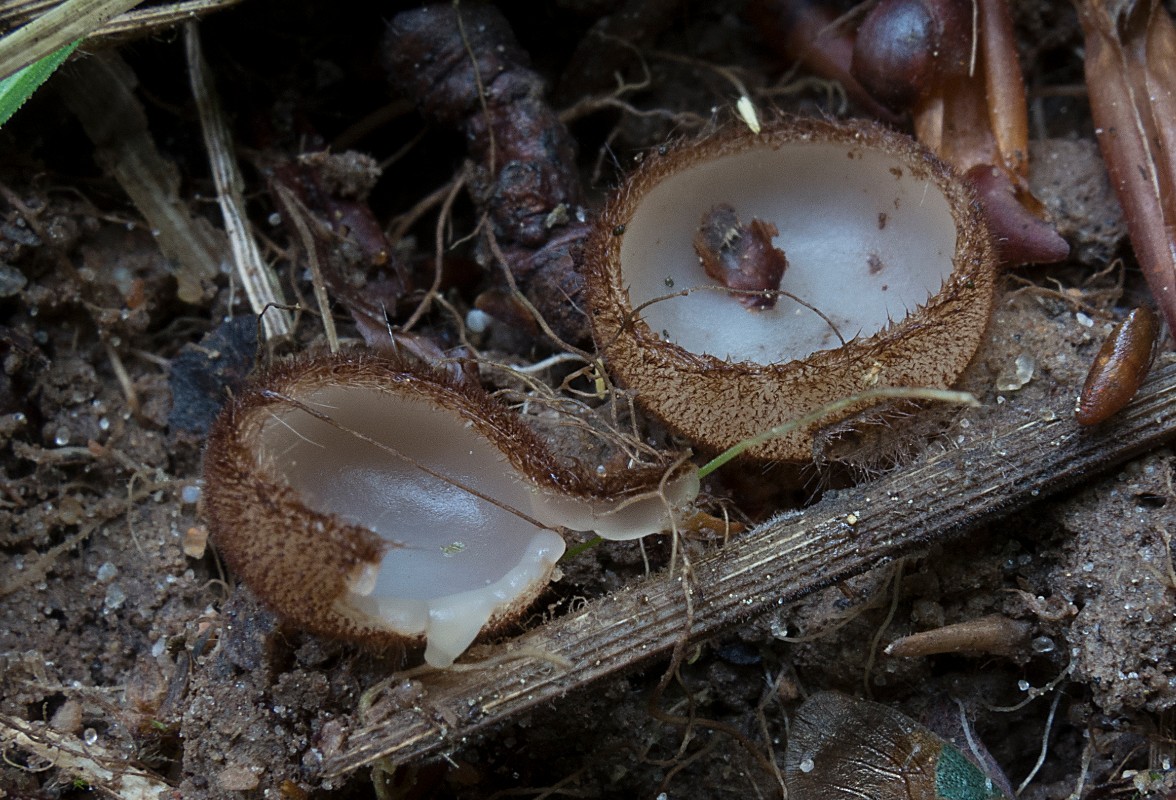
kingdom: Fungi
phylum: Ascomycota
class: Pezizomycetes
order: Pezizales
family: Pyronemataceae
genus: Humaria
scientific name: Humaria hemisphaerica
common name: halvkugleformet børstebæger
